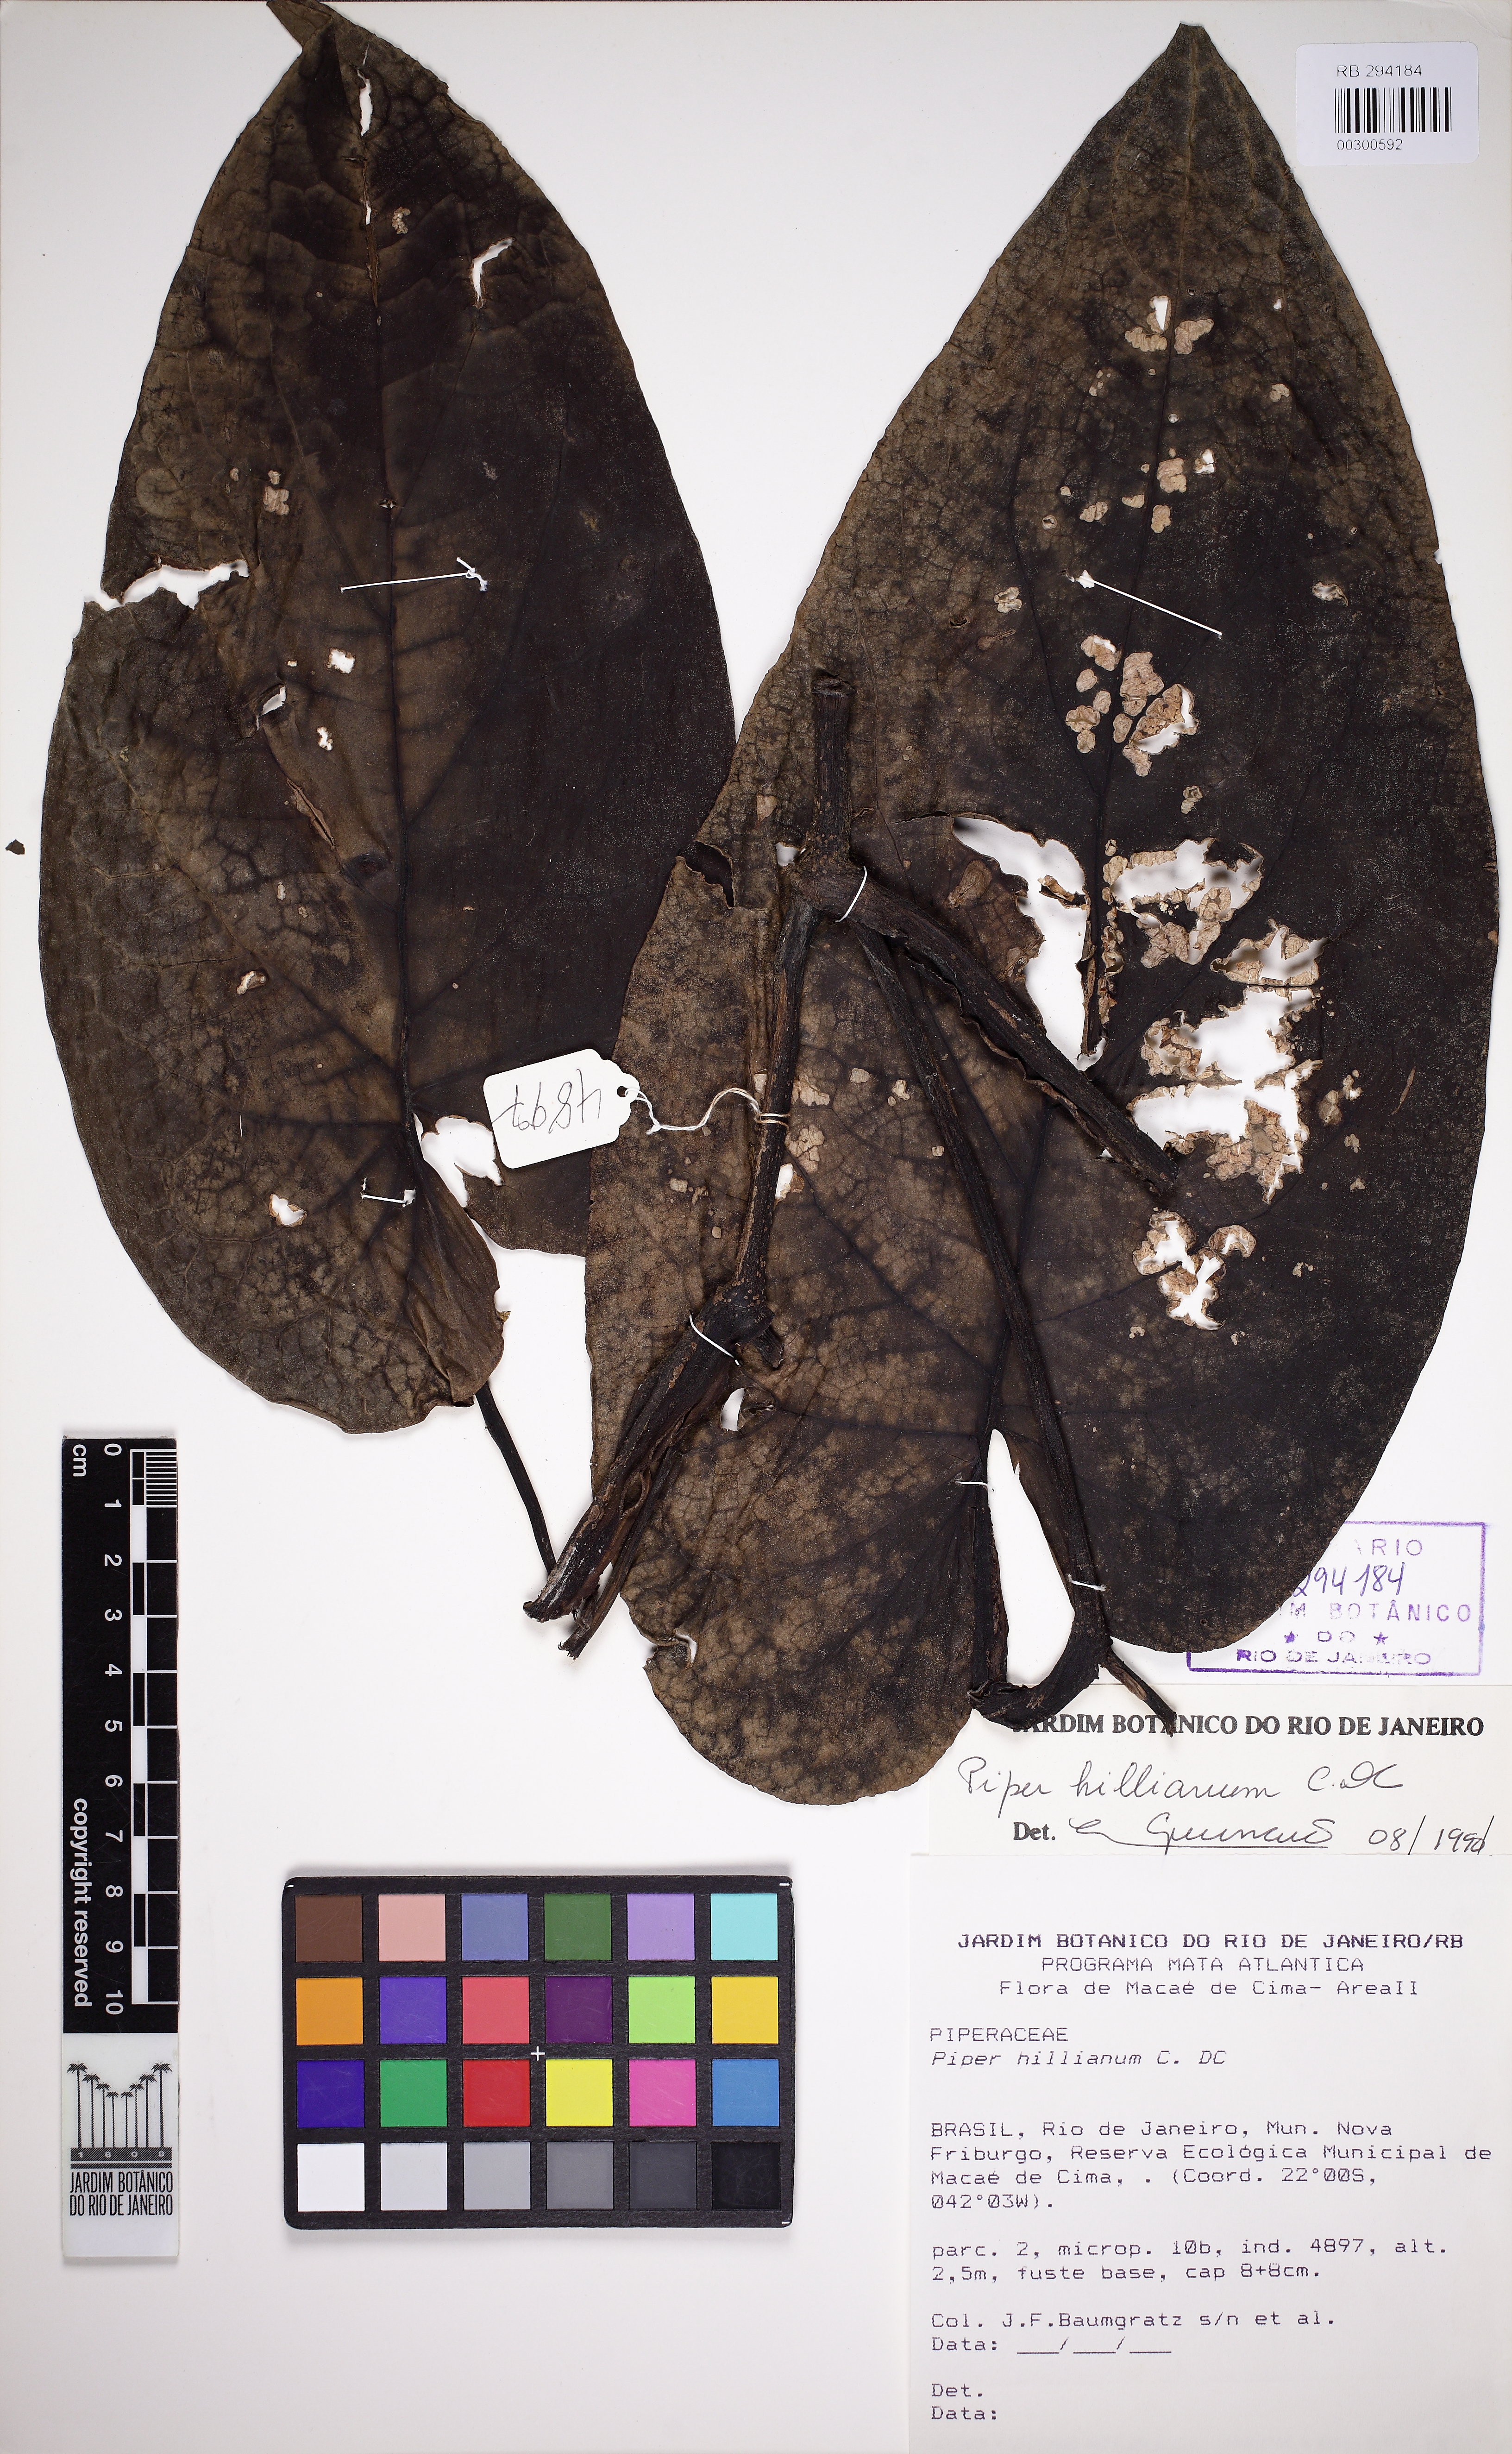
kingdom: Plantae
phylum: Tracheophyta
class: Magnoliopsida
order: Piperales
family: Piperaceae
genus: Piper
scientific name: Piper hillianum
